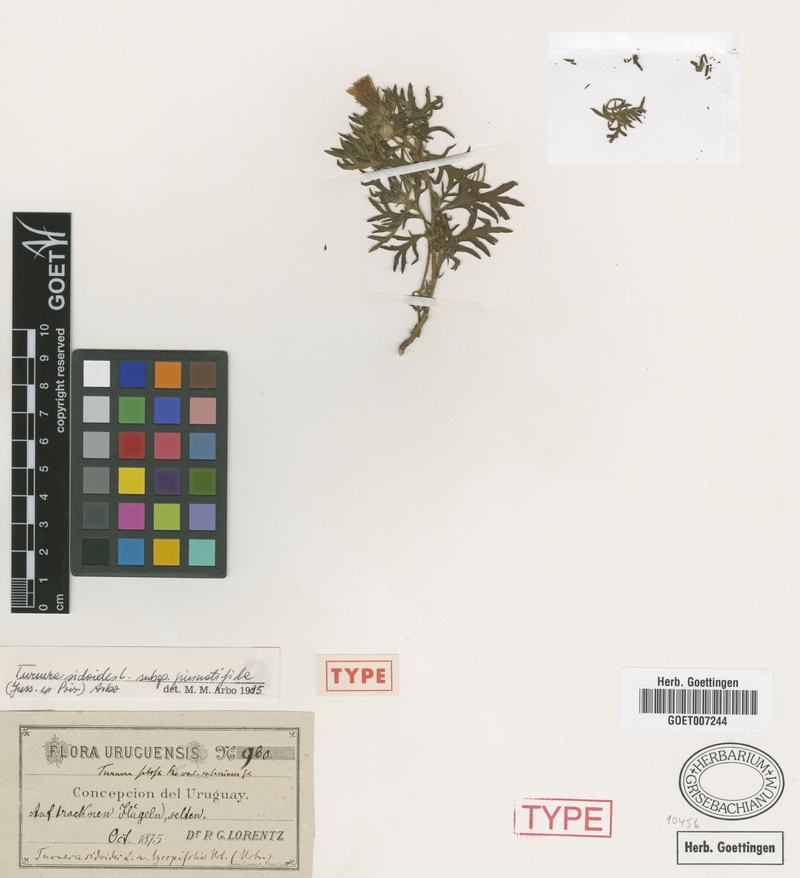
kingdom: Plantae
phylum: Tracheophyta
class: Magnoliopsida
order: Malpighiales
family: Turneraceae
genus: Turnera
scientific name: Turnera sidoides
